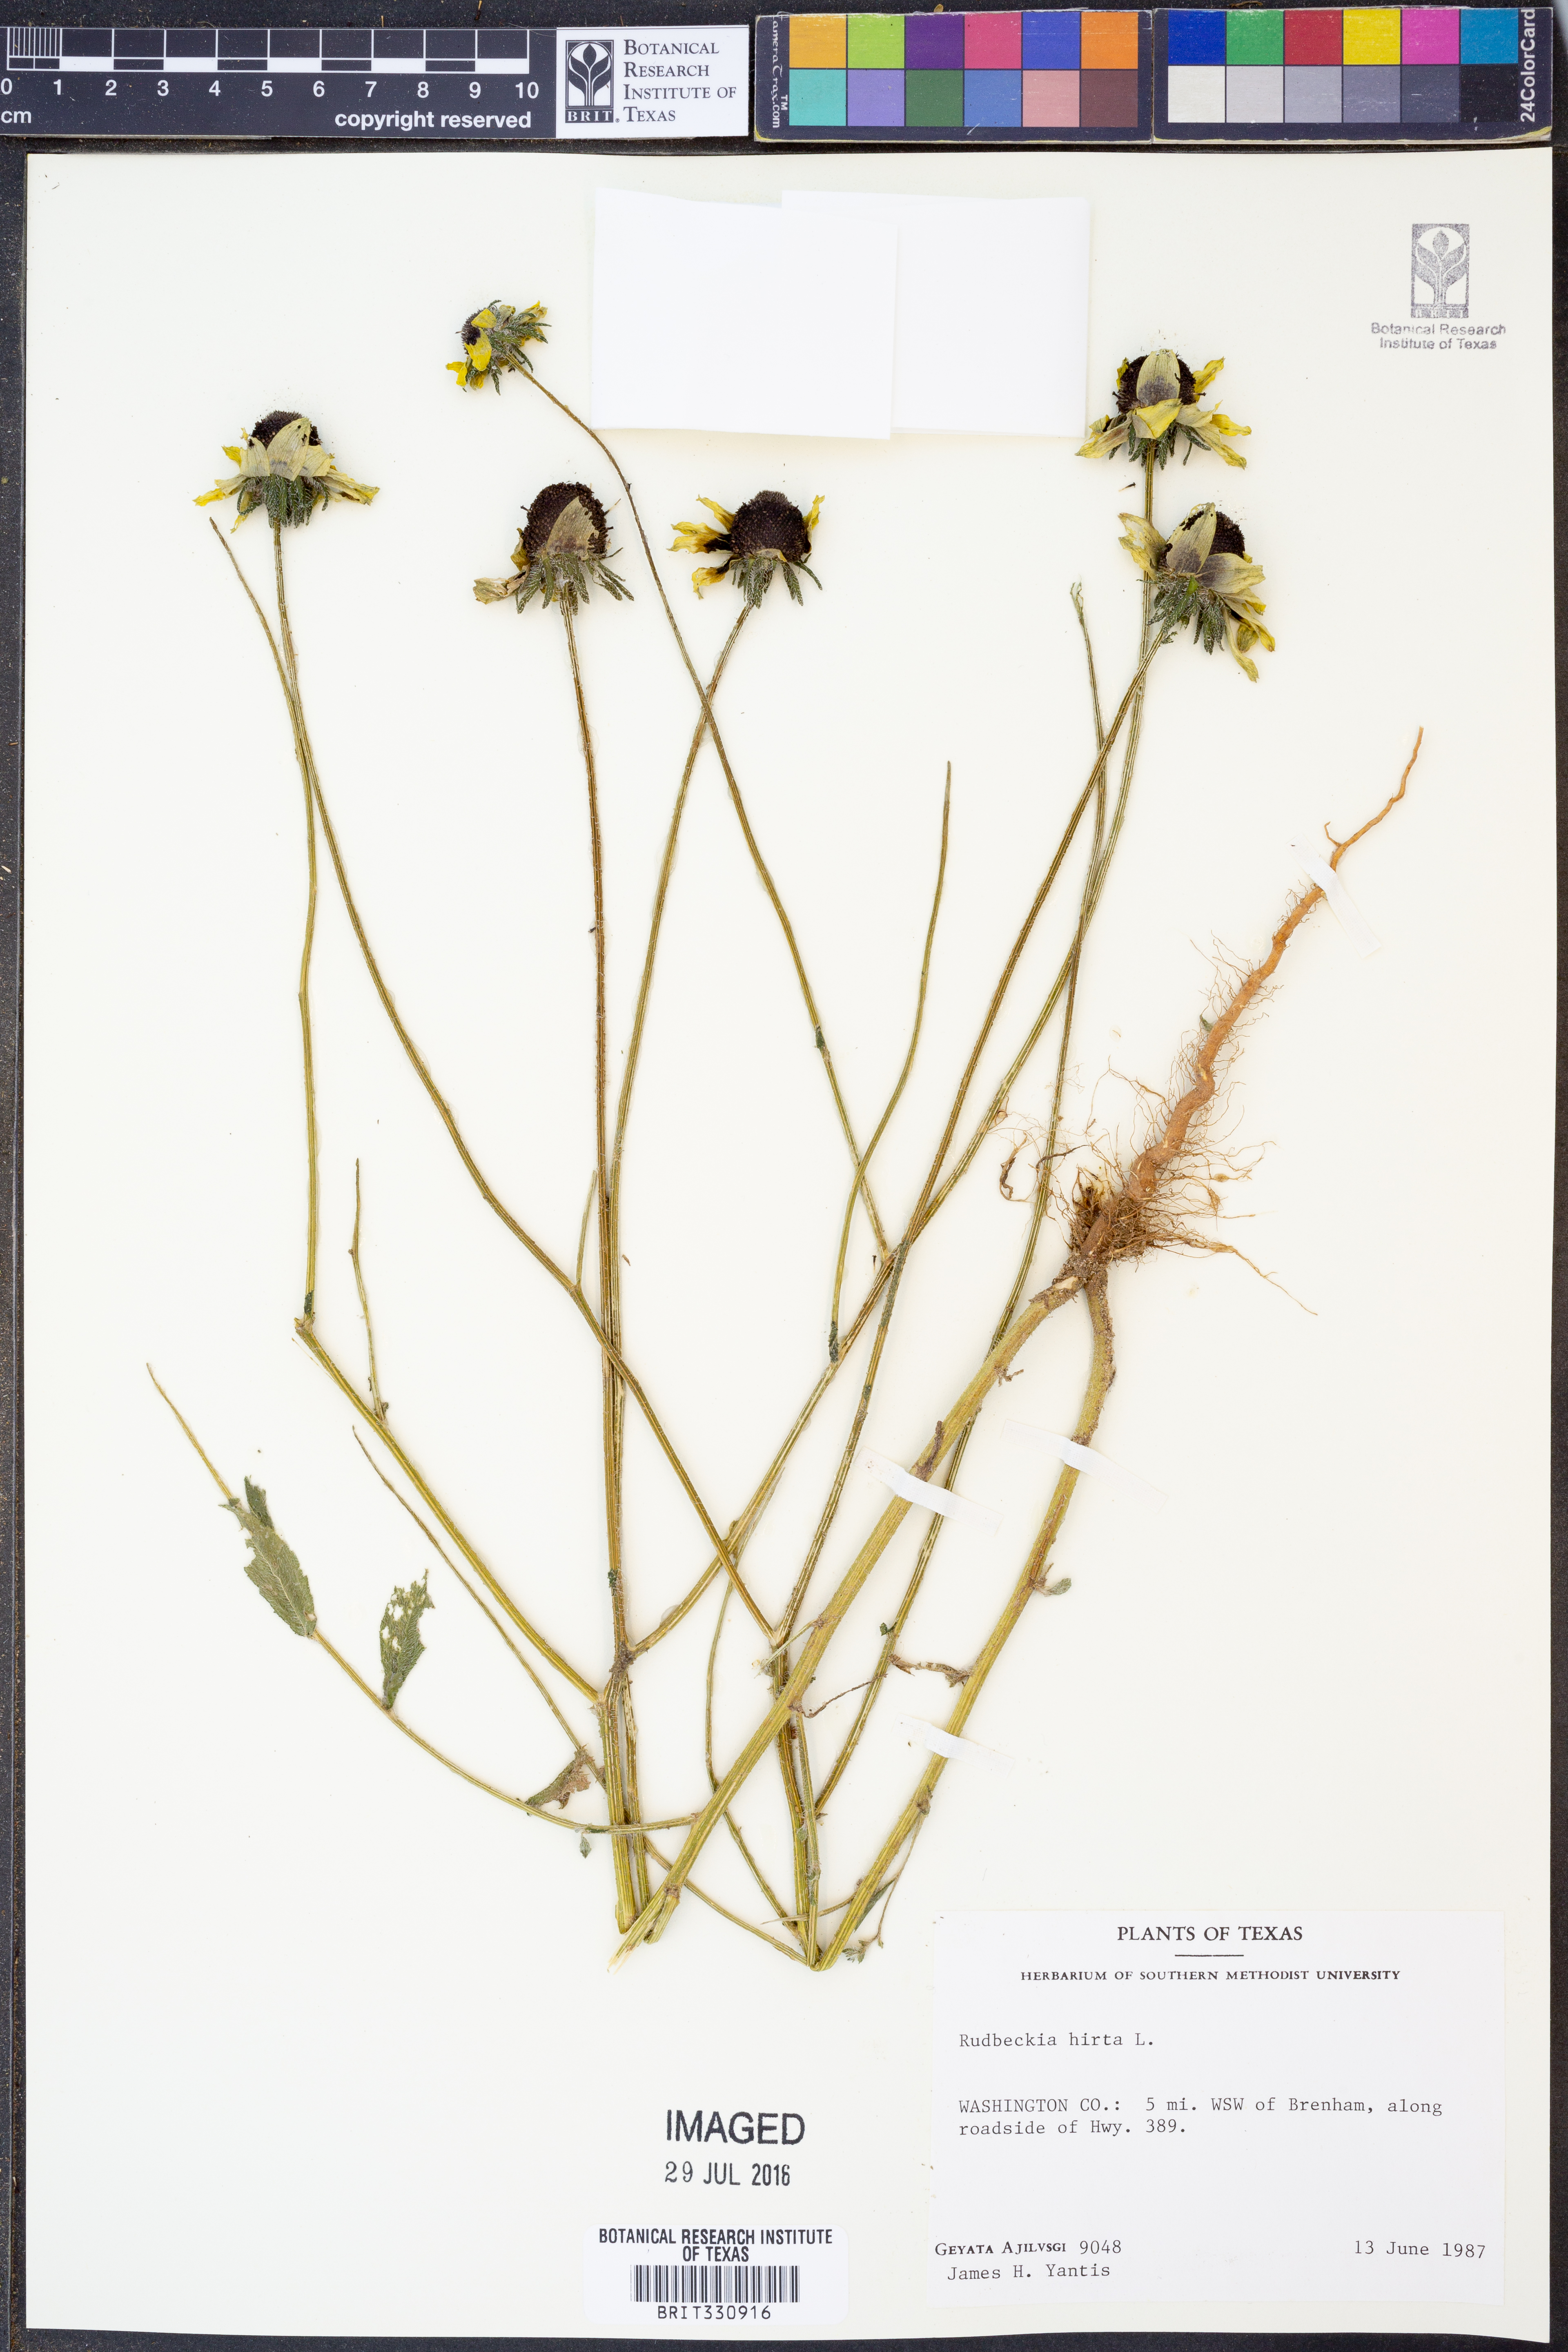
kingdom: Plantae
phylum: Tracheophyta
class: Magnoliopsida
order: Asterales
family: Asteraceae
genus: Rudbeckia
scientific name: Rudbeckia hirta
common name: Black-eyed-susan
